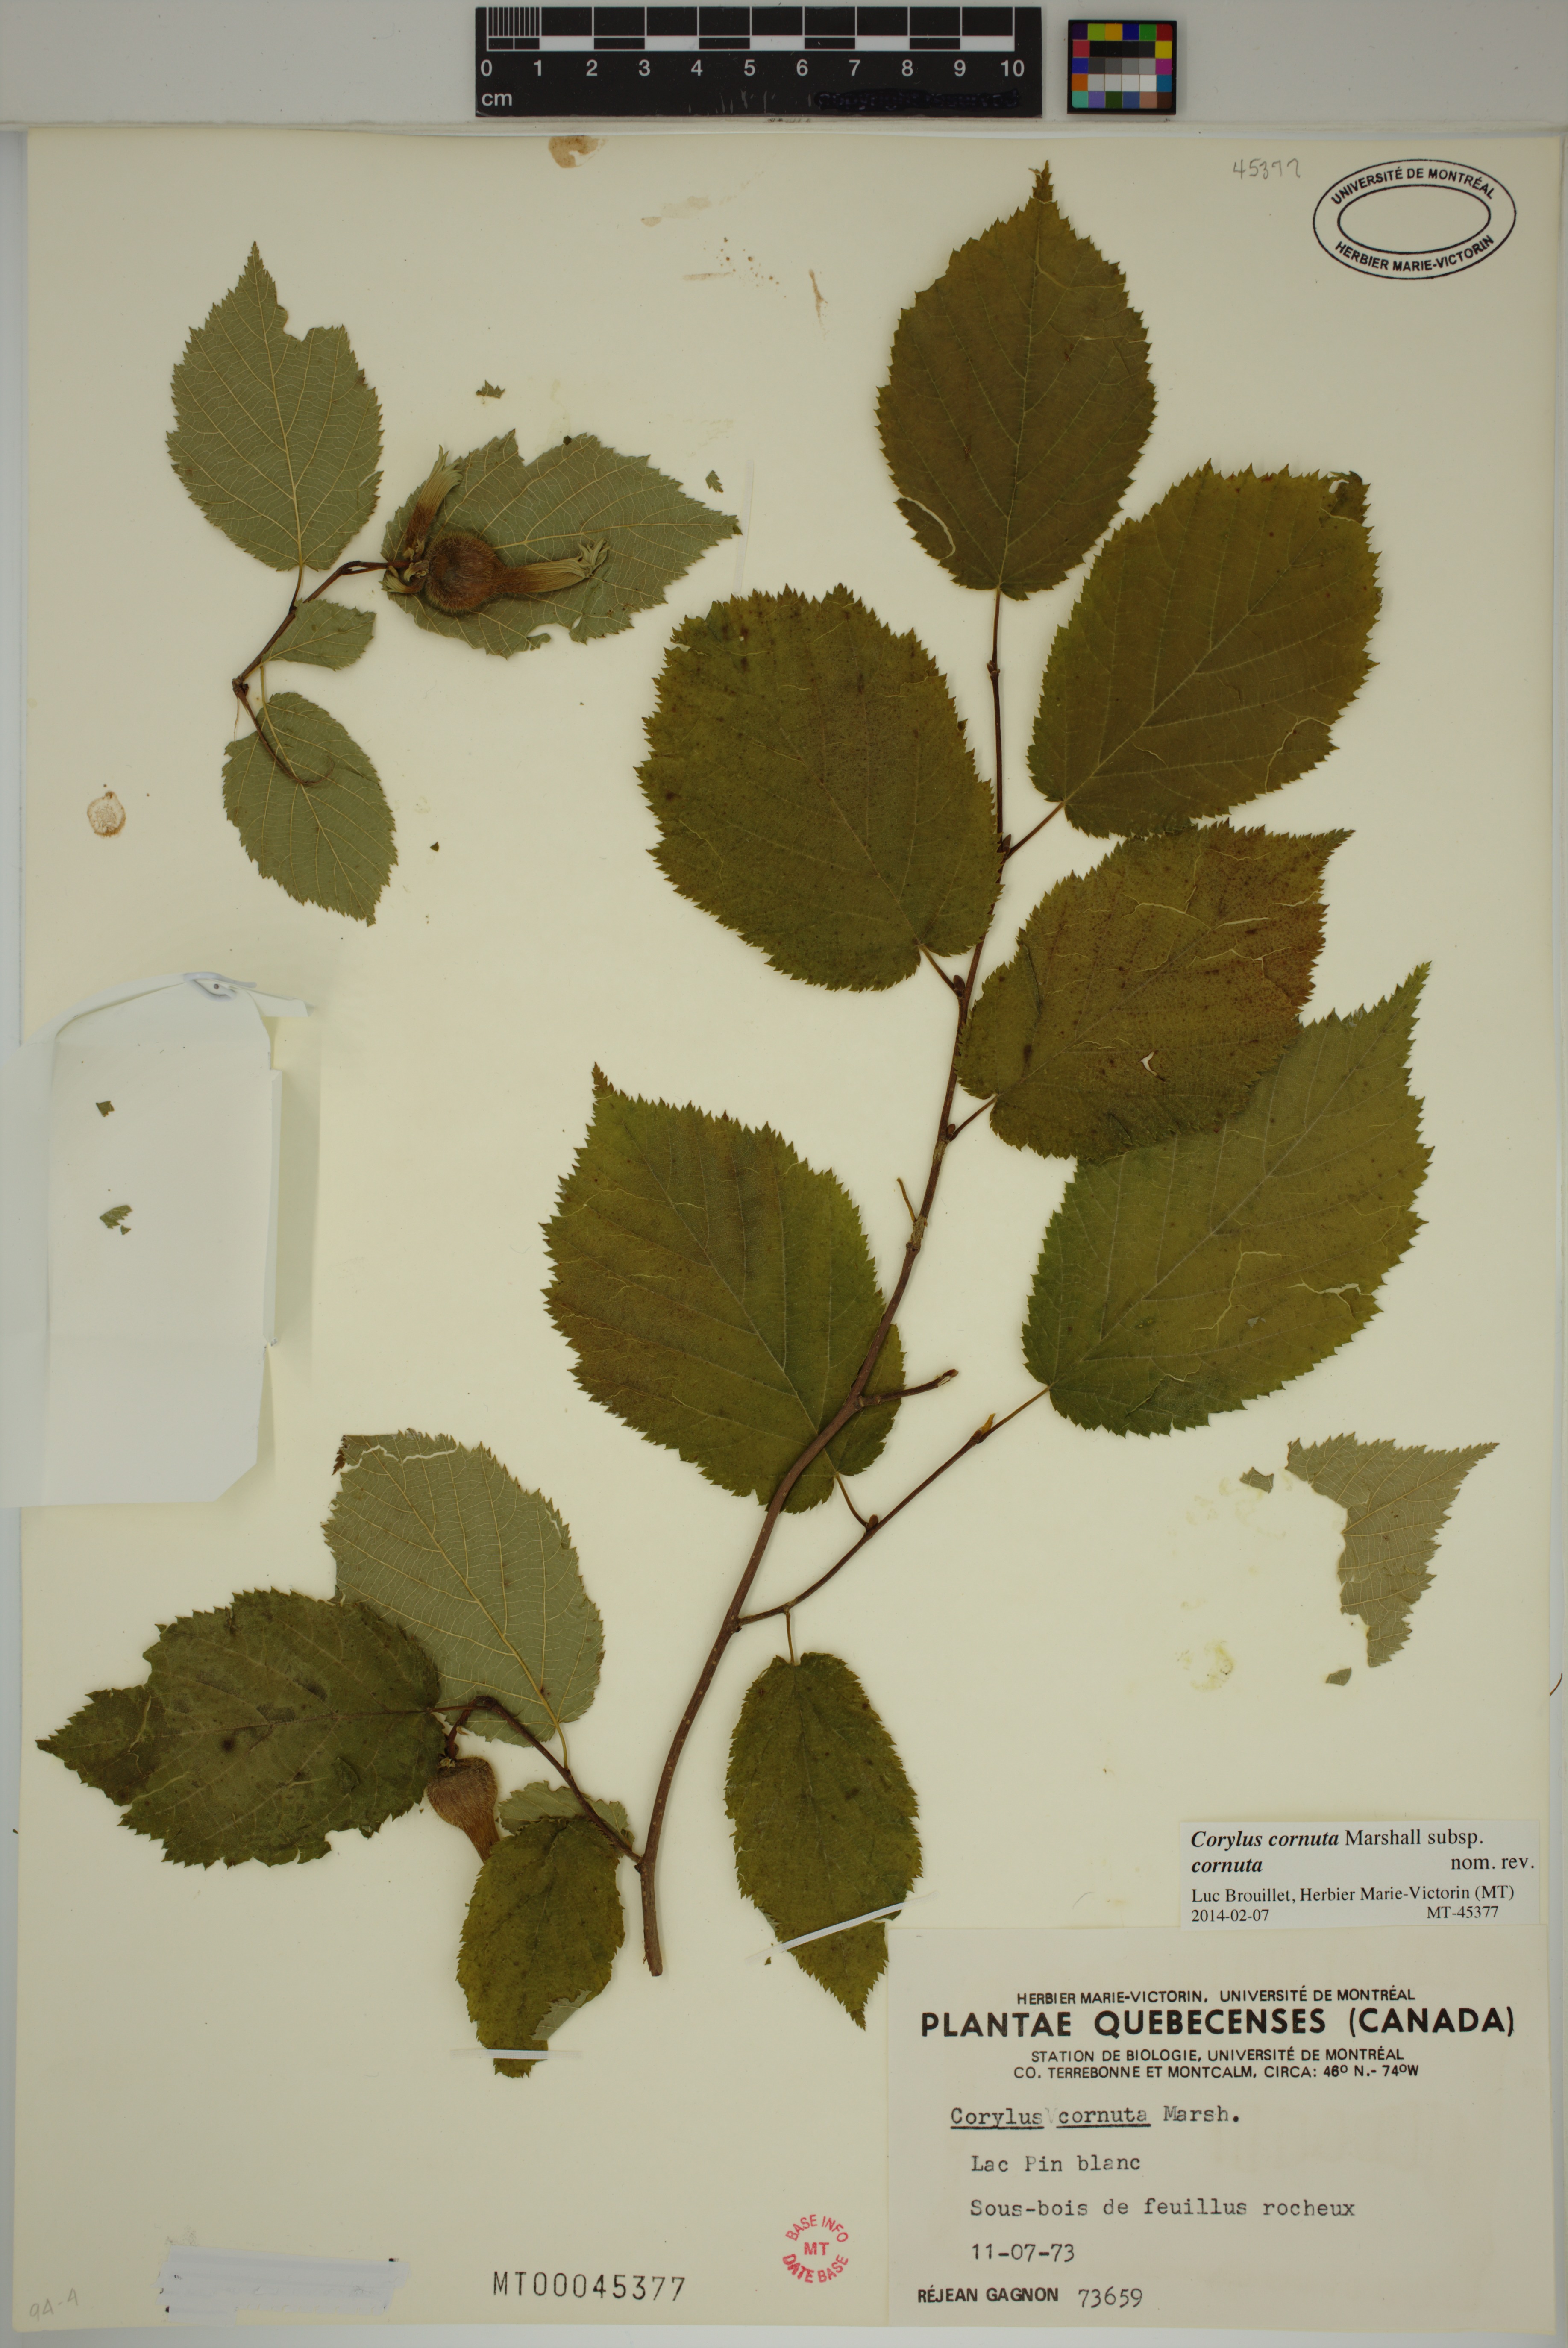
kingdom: Plantae
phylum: Tracheophyta
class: Magnoliopsida
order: Fagales
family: Betulaceae
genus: Corylus
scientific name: Corylus cornuta
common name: Beaked hazel
